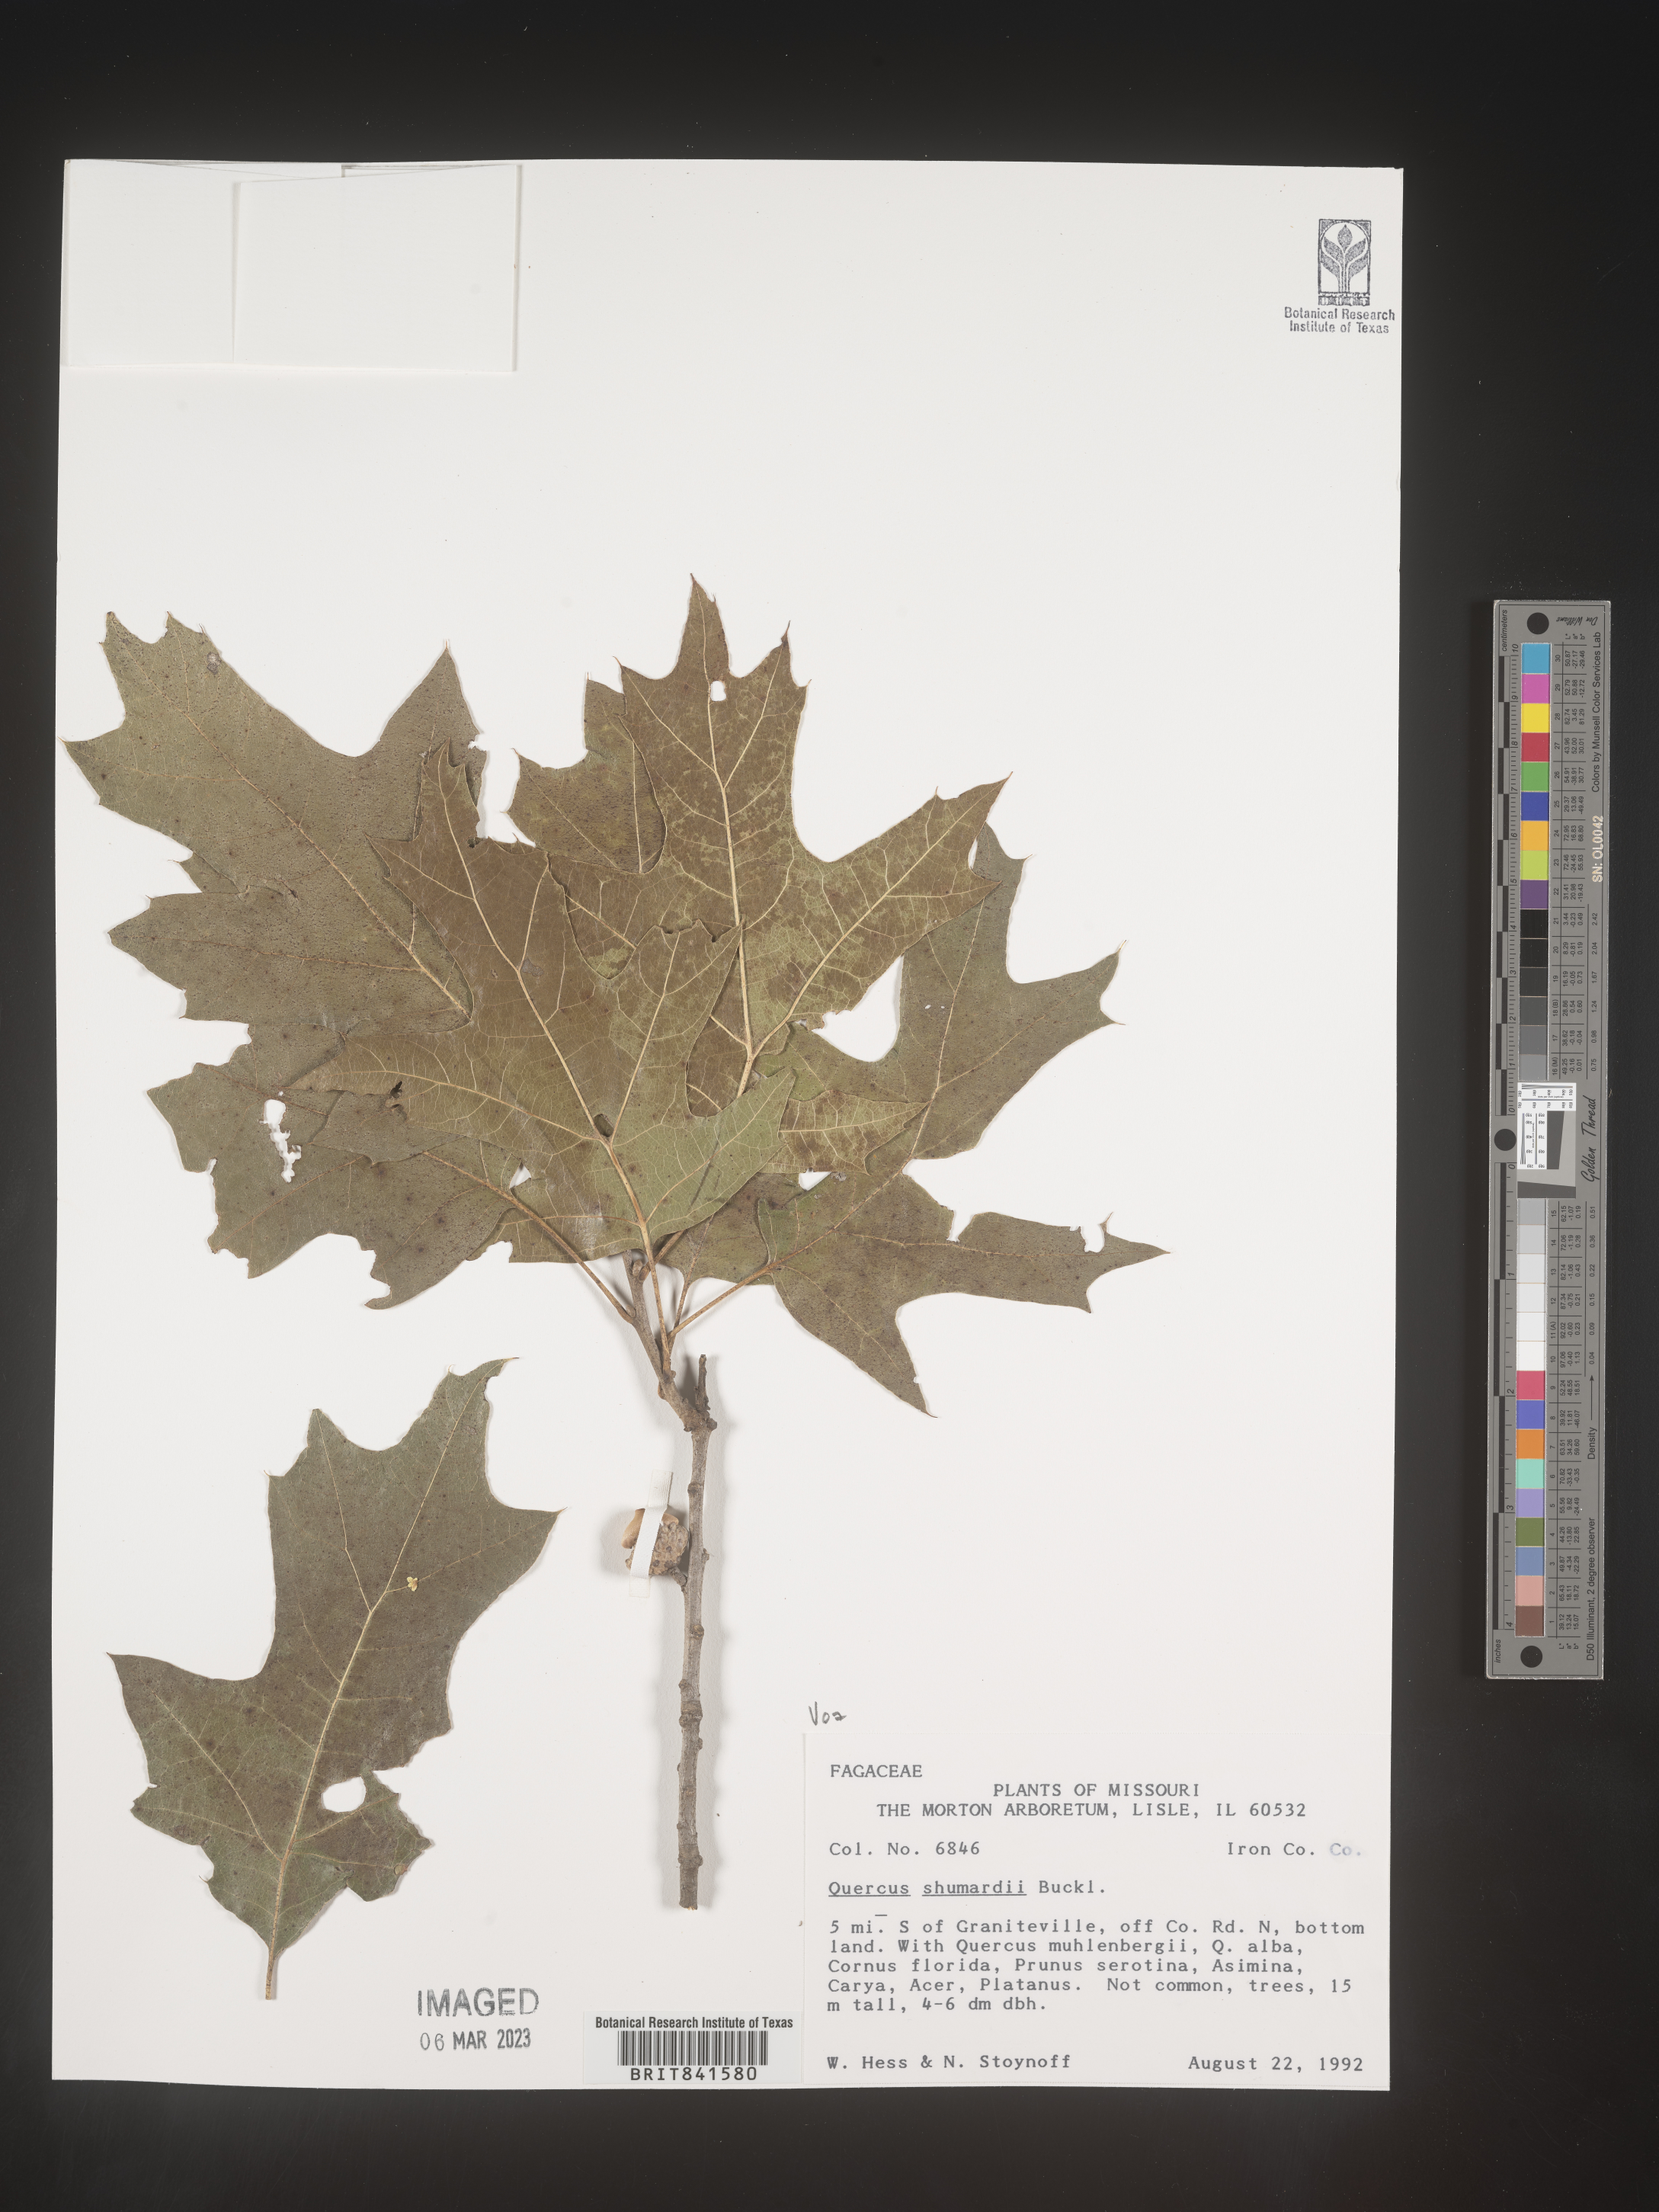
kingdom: Plantae
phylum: Tracheophyta
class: Magnoliopsida
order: Fagales
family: Fagaceae
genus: Quercus
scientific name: Quercus shumardii
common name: Shumard oak
